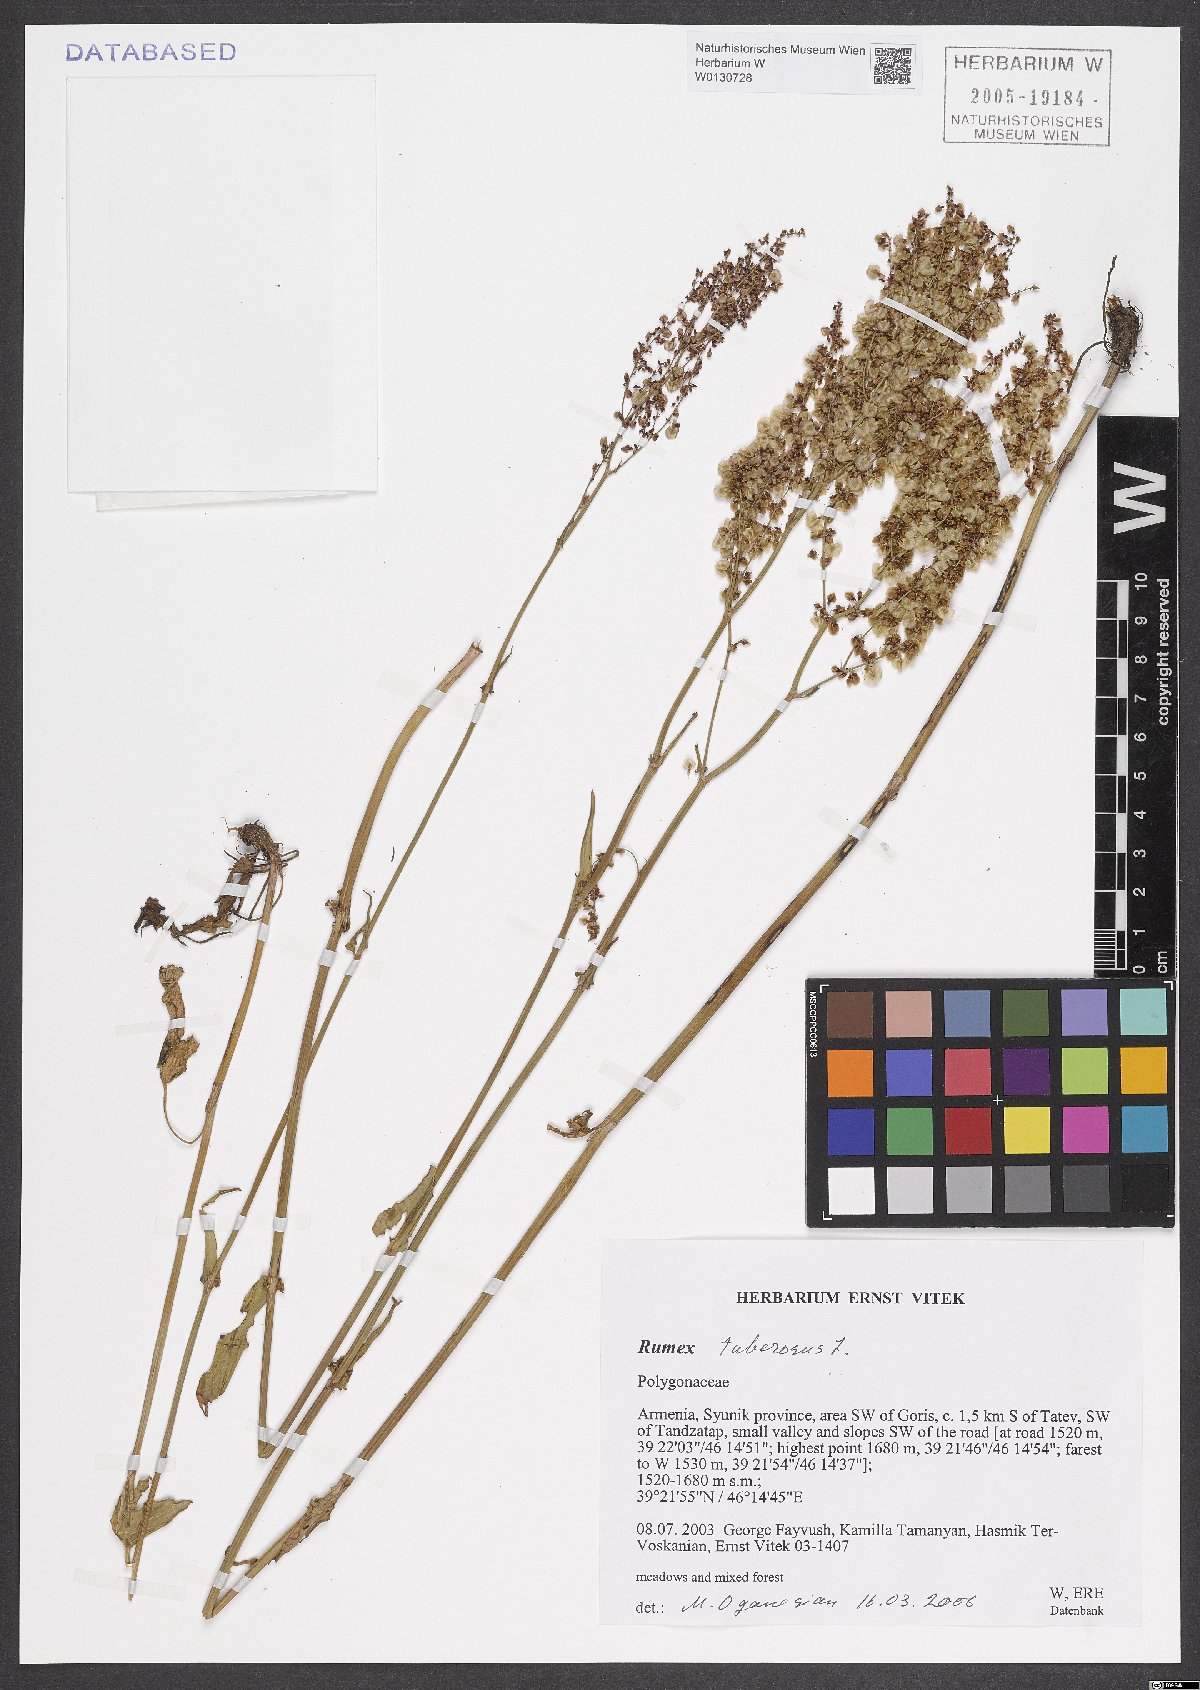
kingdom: Plantae
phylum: Tracheophyta
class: Magnoliopsida
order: Caryophyllales
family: Polygonaceae
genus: Rumex
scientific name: Rumex tuberosus
